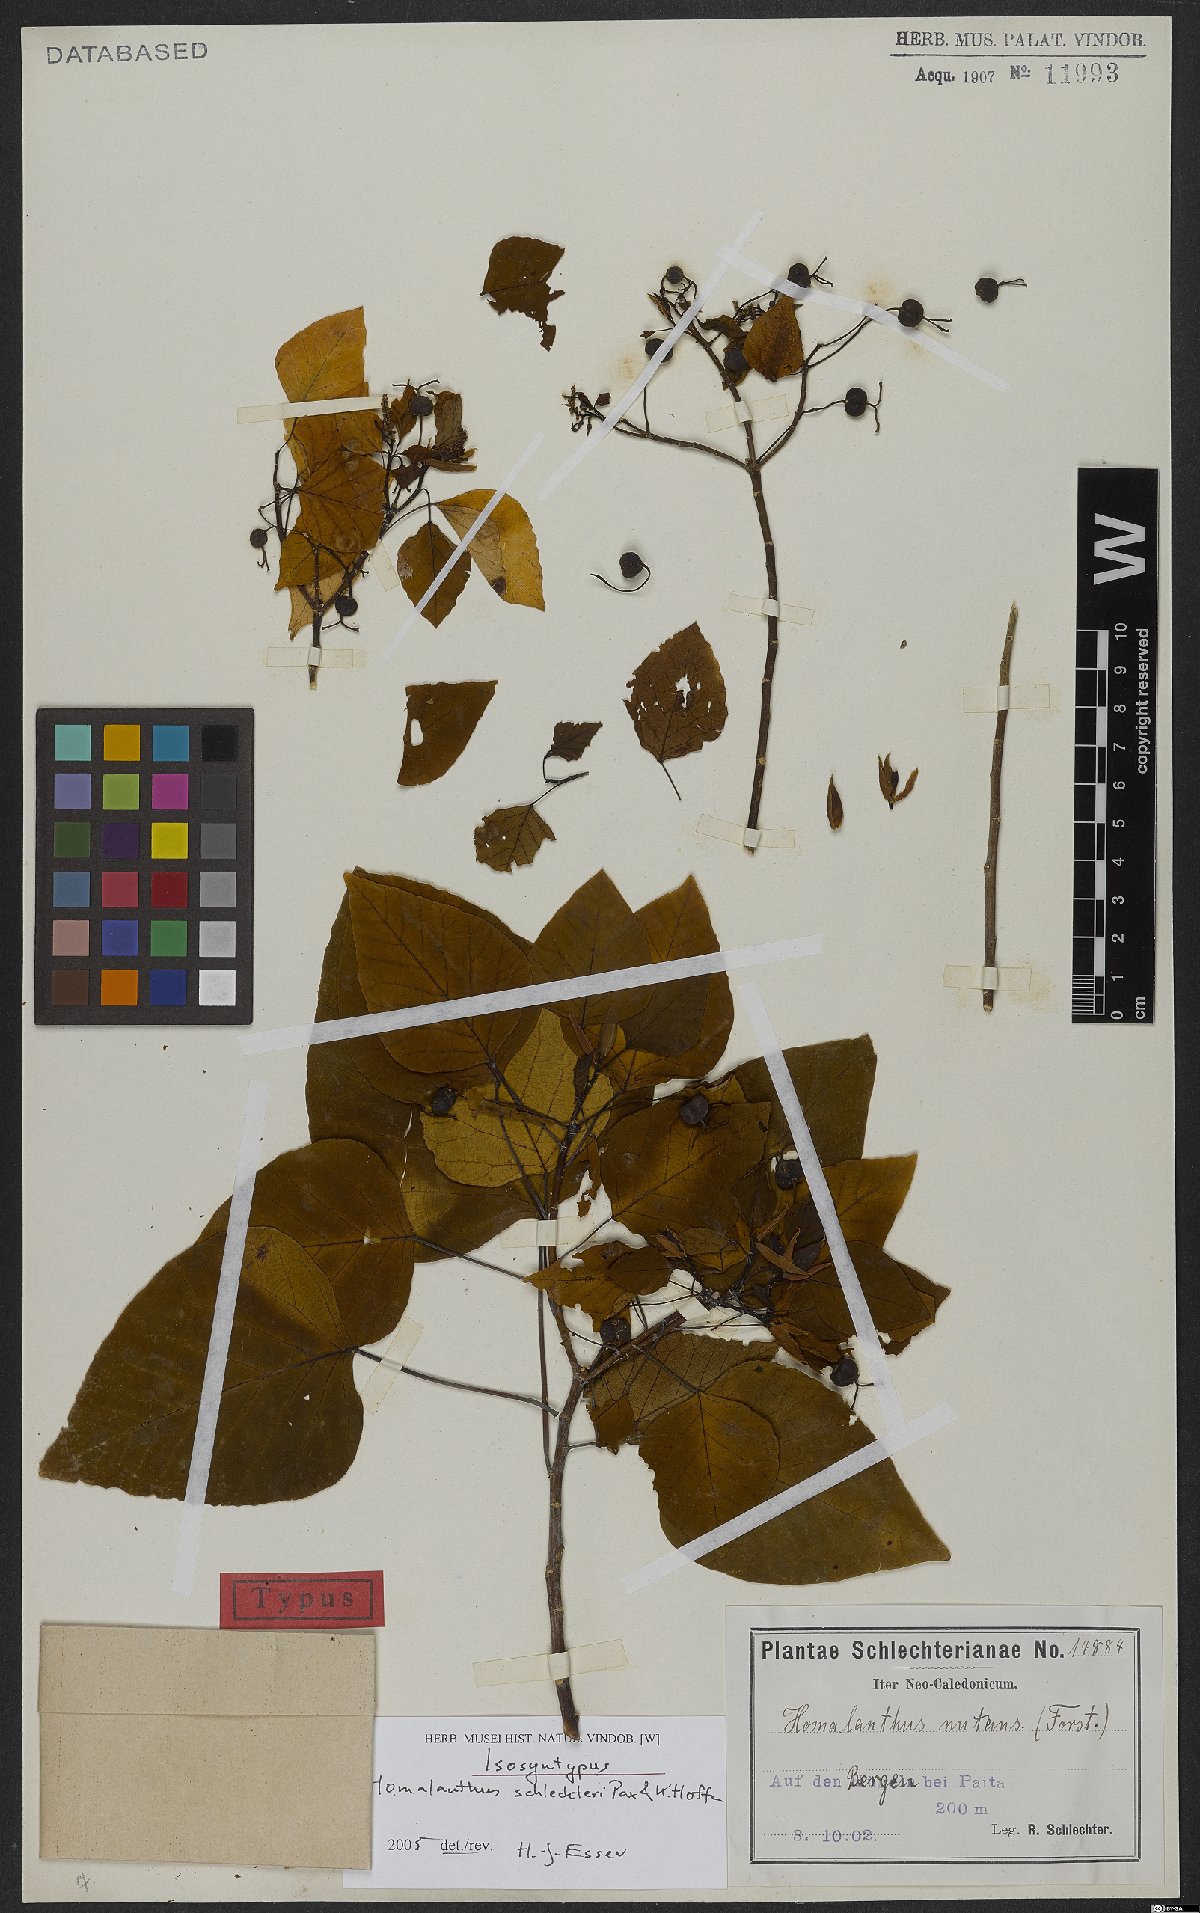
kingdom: Plantae
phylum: Tracheophyta
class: Magnoliopsida
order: Malpighiales
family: Euphorbiaceae
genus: Homalanthus
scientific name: Homalanthus schlechteri
